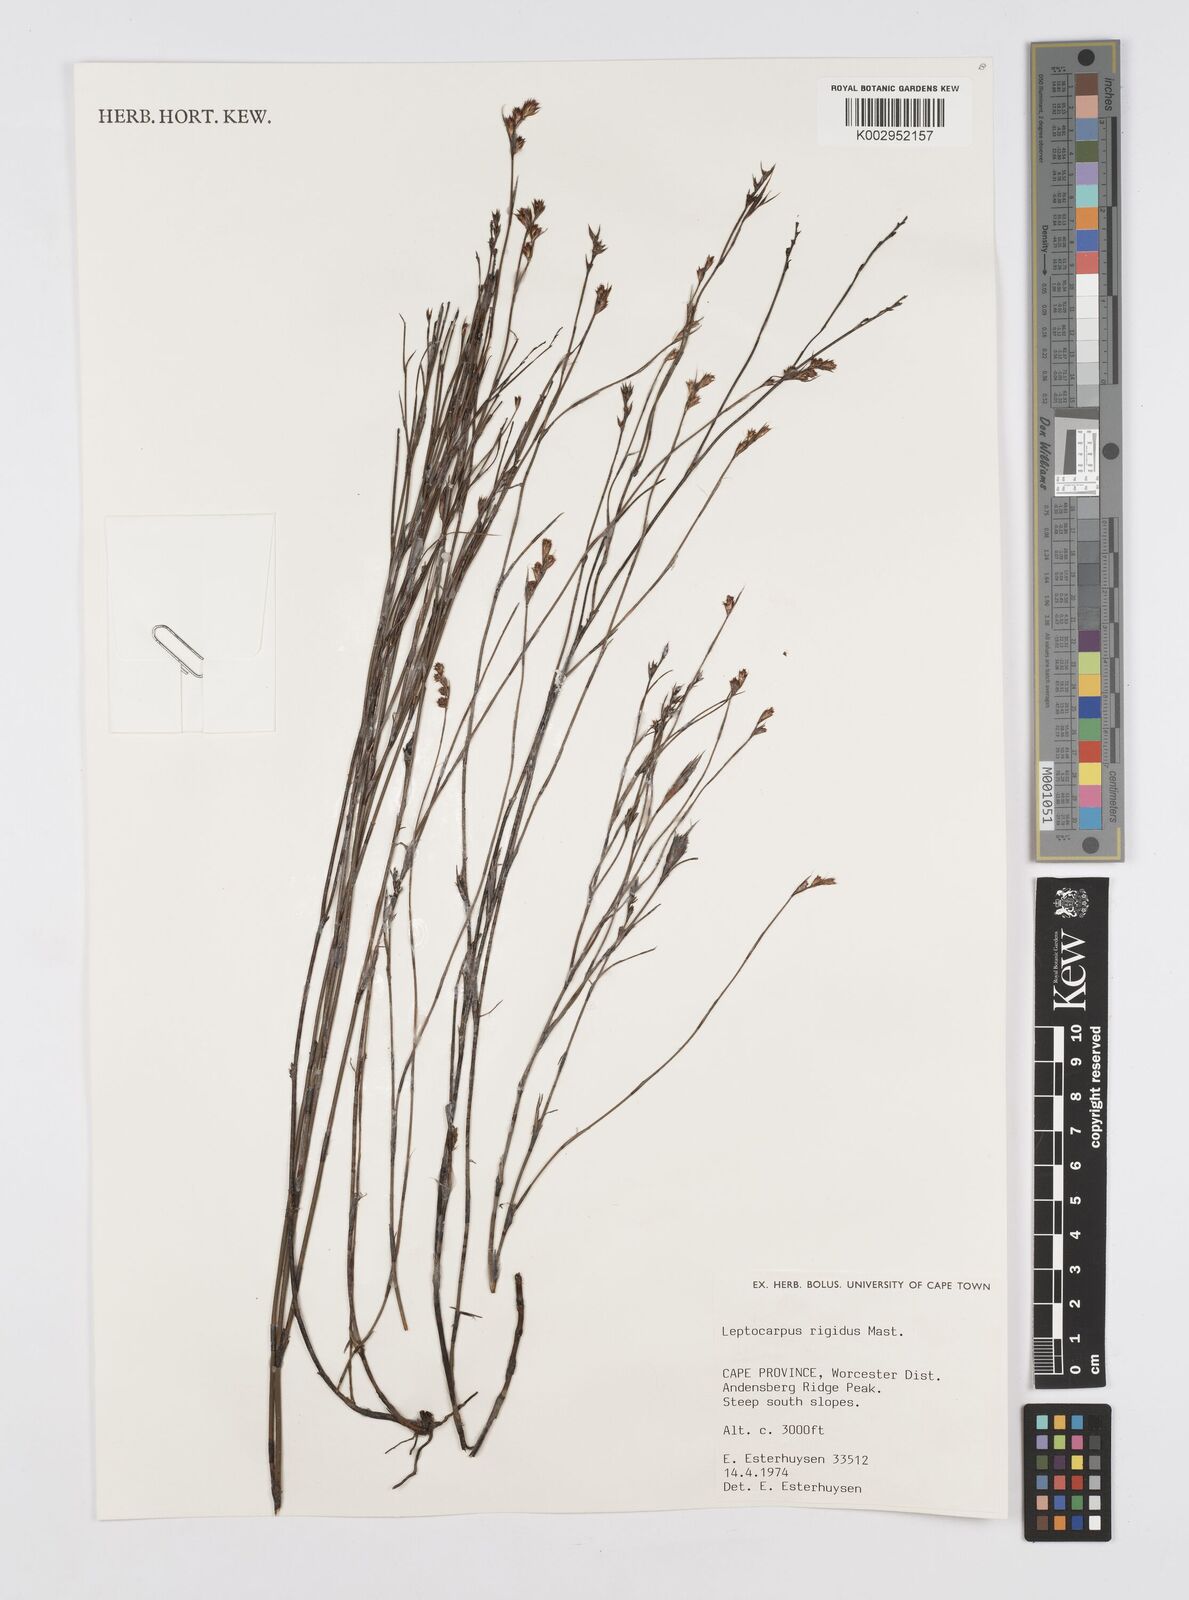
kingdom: Plantae
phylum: Tracheophyta
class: Liliopsida
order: Poales
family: Restionaceae
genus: Restio
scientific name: Restio rigidus
